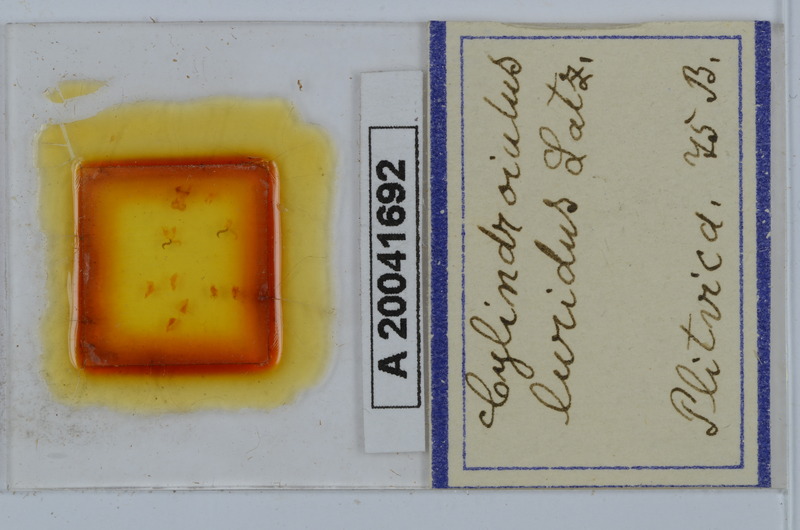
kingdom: Animalia
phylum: Arthropoda
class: Diplopoda
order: Julida
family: Julidae
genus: Cylindroiulus
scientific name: Cylindroiulus luridus
